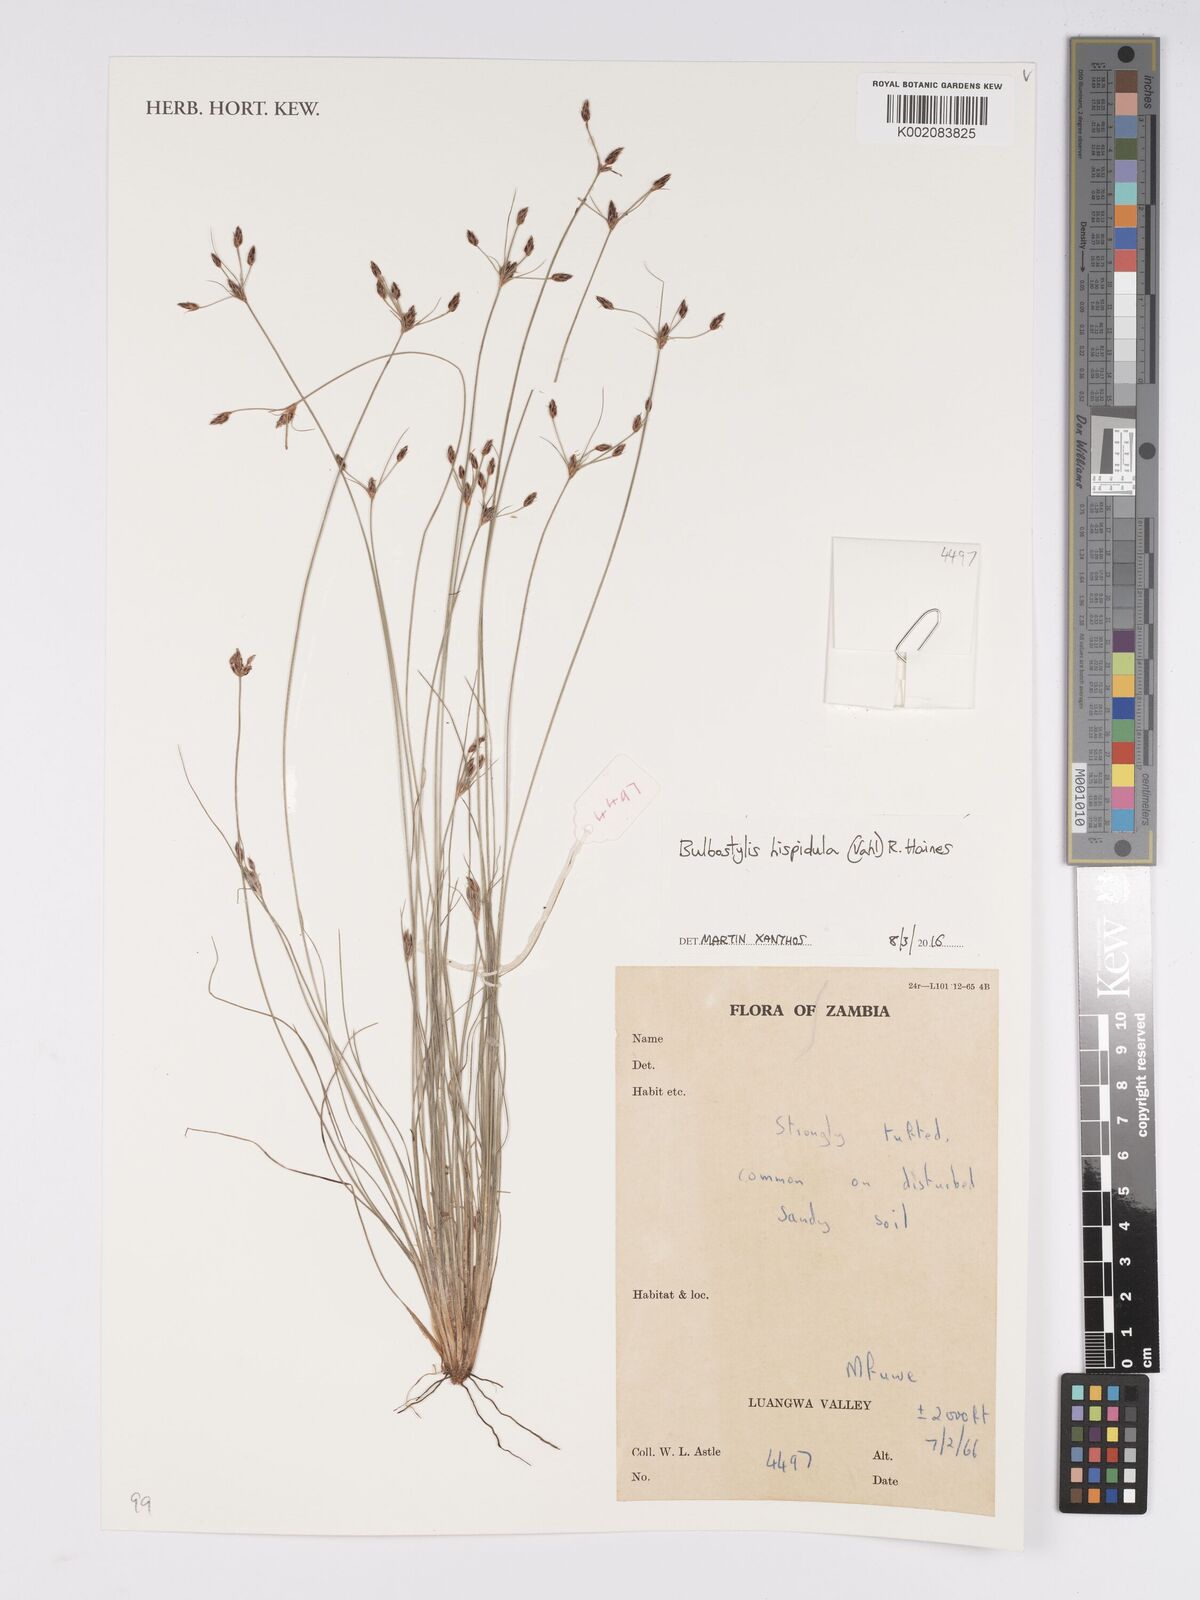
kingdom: Plantae
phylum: Tracheophyta
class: Liliopsida
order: Poales
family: Cyperaceae
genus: Bulbostylis
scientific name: Bulbostylis hispidula
